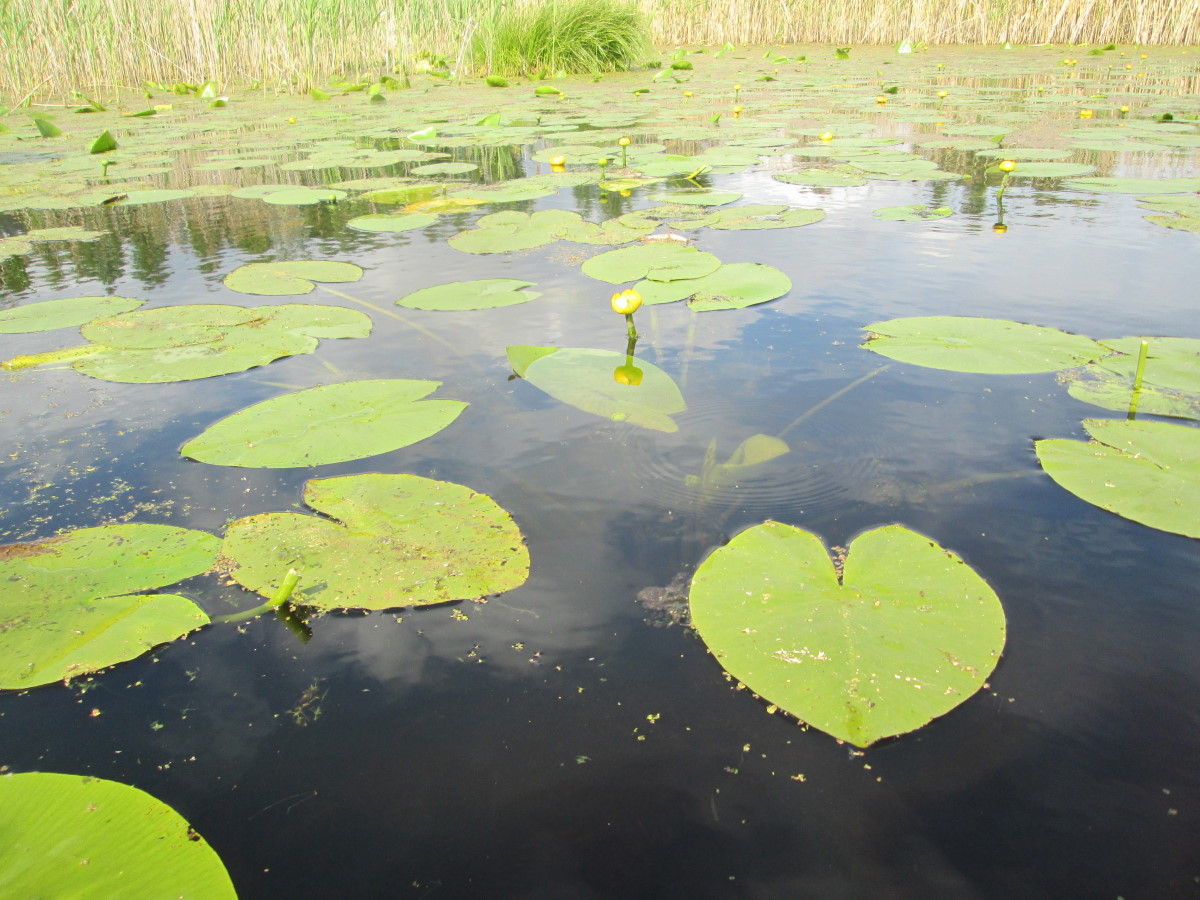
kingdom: Plantae
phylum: Tracheophyta
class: Magnoliopsida
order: Nymphaeales
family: Nymphaeaceae
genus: Nuphar
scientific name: Nuphar lutea
